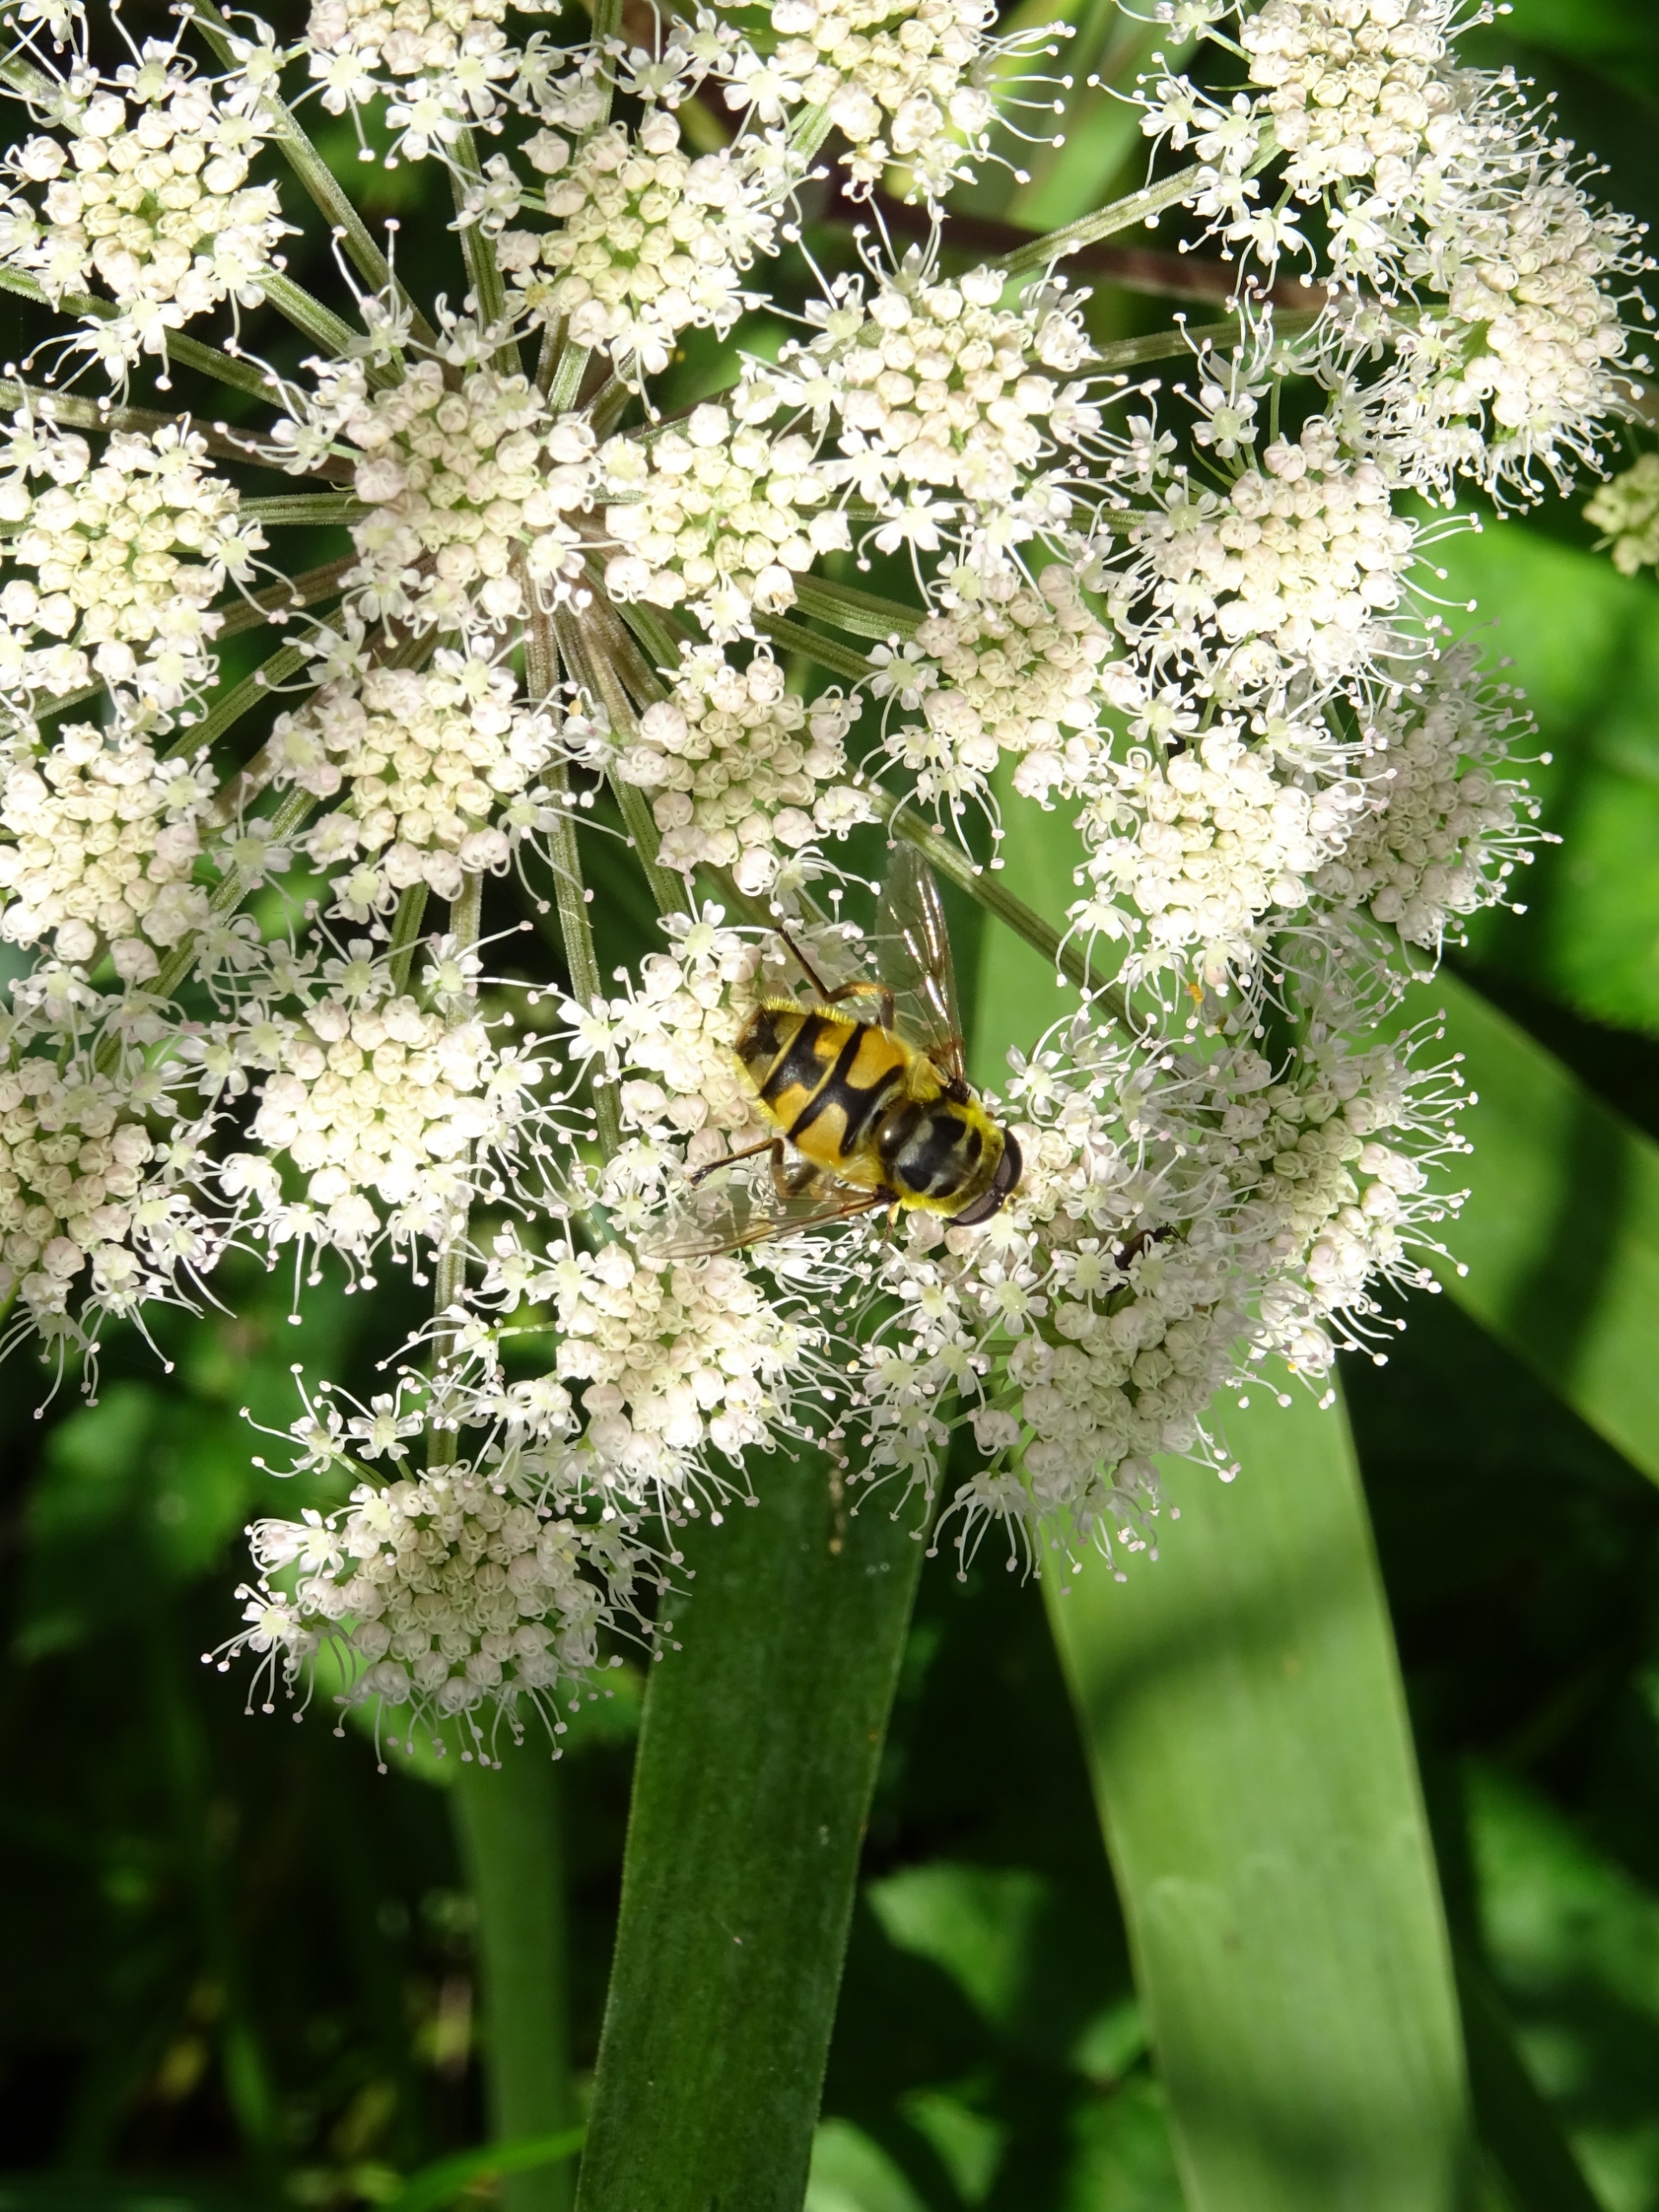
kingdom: Animalia
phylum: Arthropoda
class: Insecta
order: Diptera
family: Syrphidae
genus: Myathropa
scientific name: Myathropa florea
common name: Dødningehoved-svirreflue
